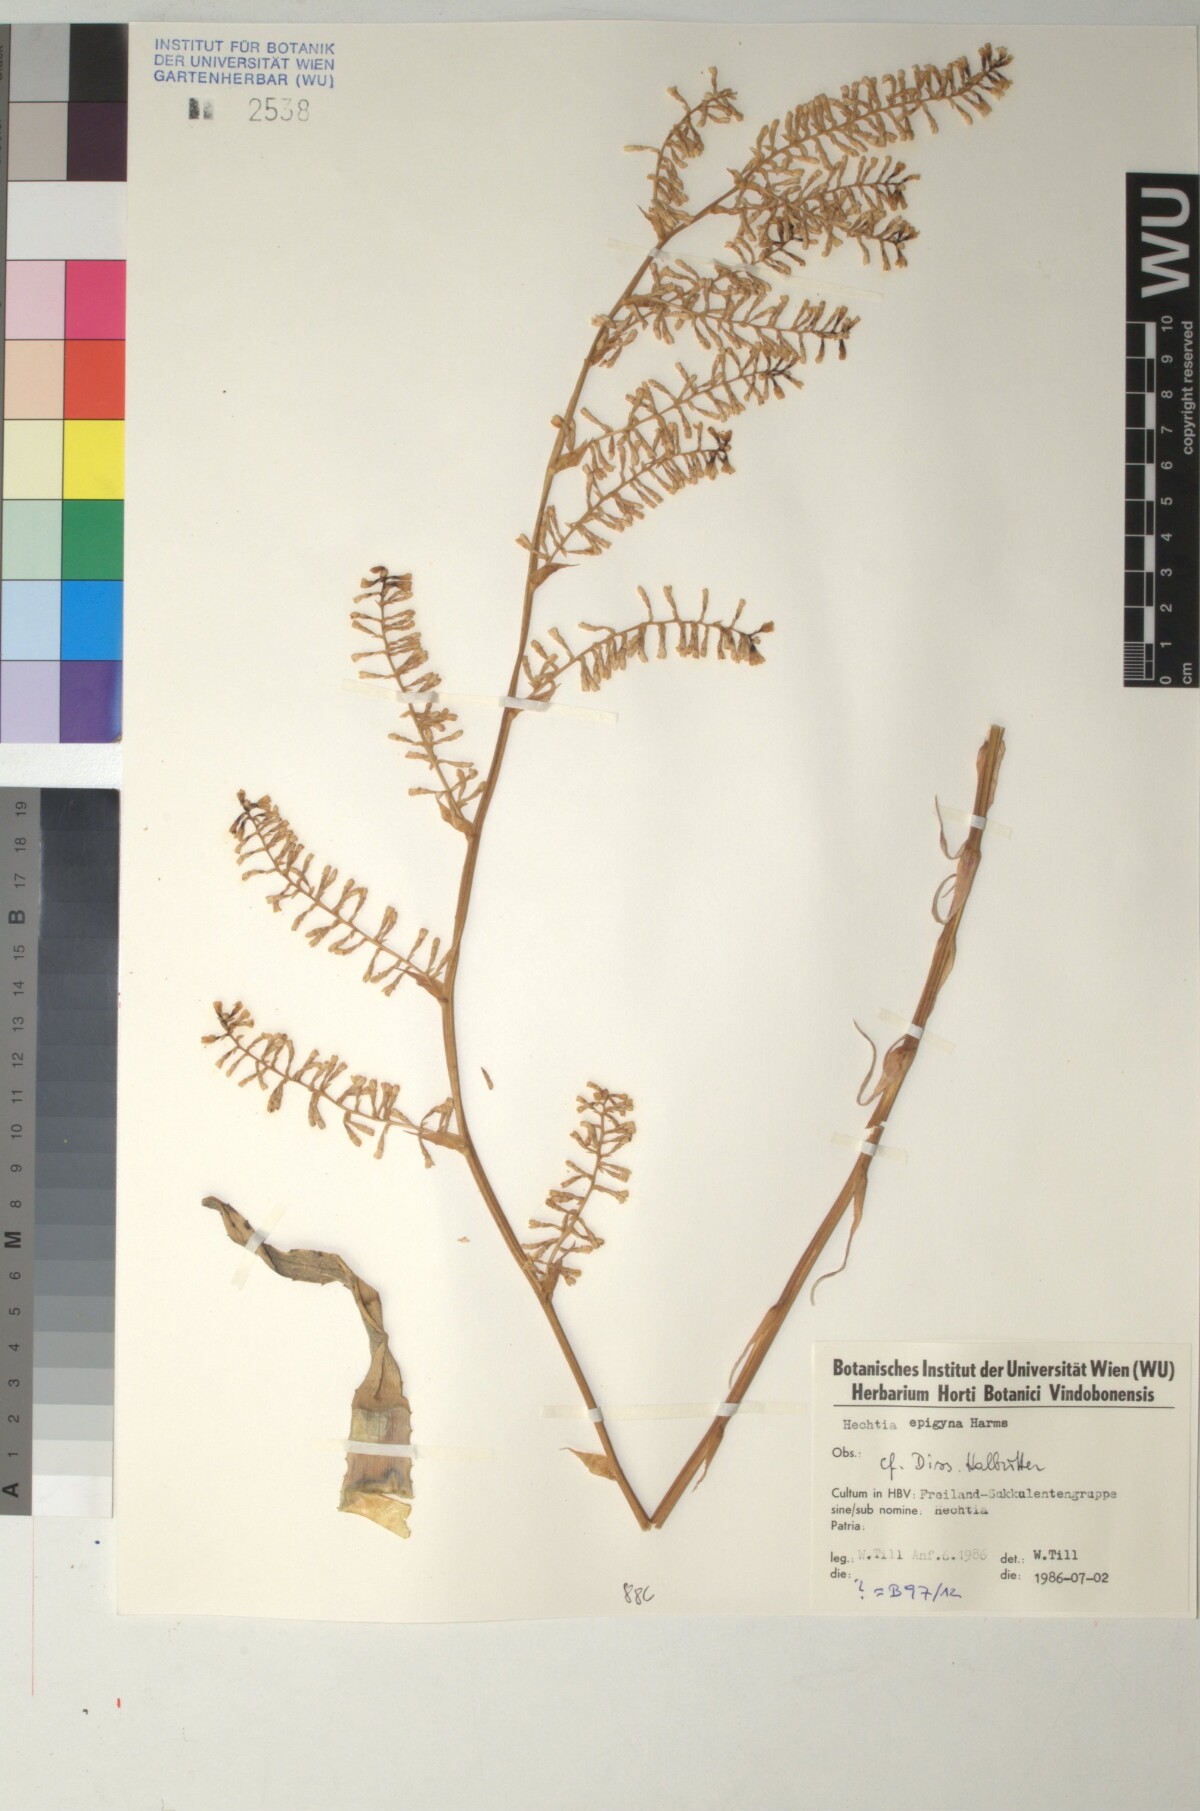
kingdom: Plantae
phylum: Tracheophyta
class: Liliopsida
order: Poales
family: Bromeliaceae
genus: Hechtia
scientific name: Hechtia
